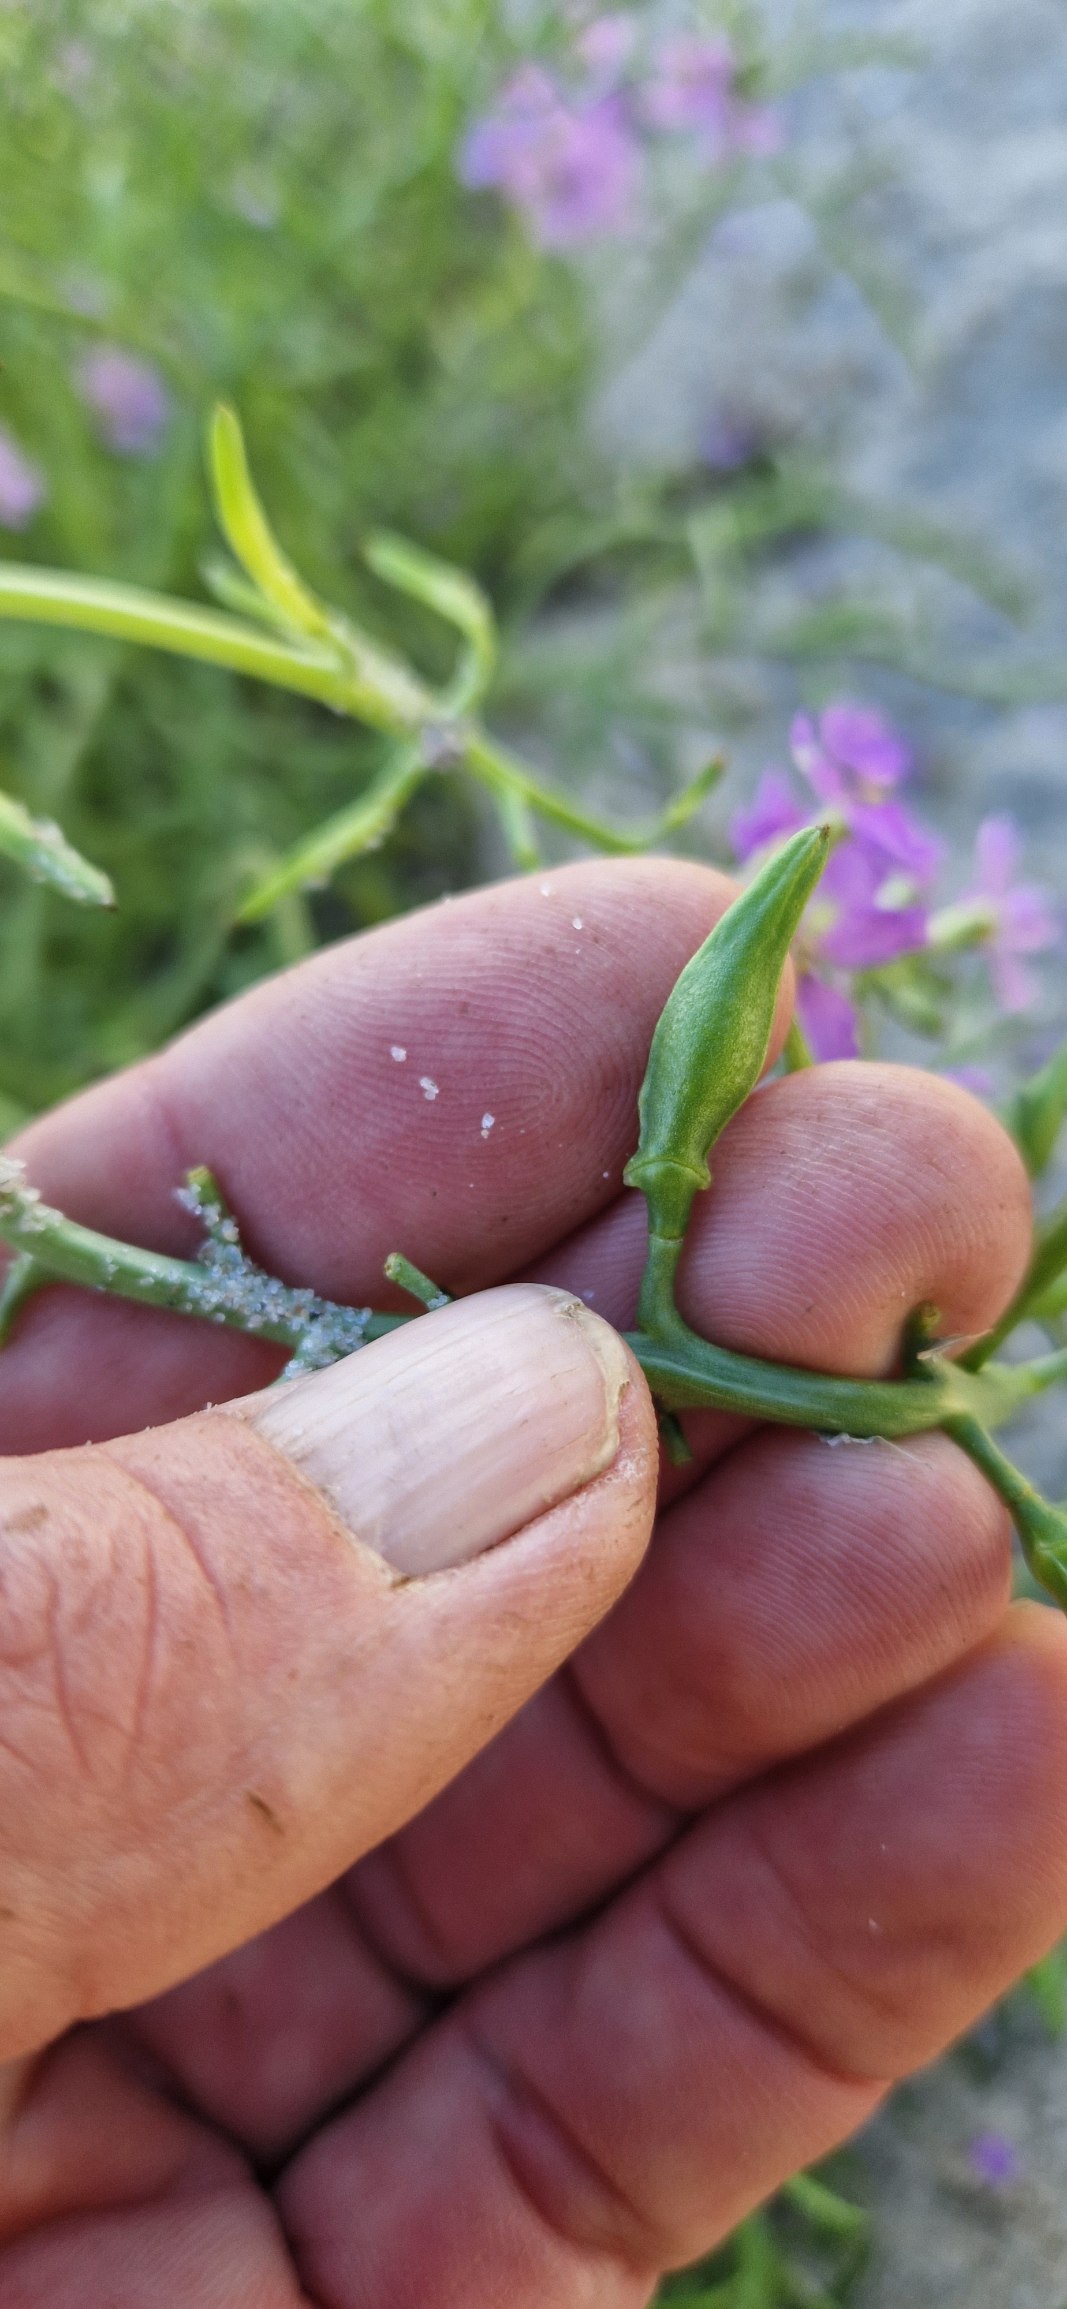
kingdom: Plantae
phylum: Tracheophyta
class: Magnoliopsida
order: Brassicales
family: Brassicaceae
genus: Cakile
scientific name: Cakile maritima
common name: Østersø-strandsennep
